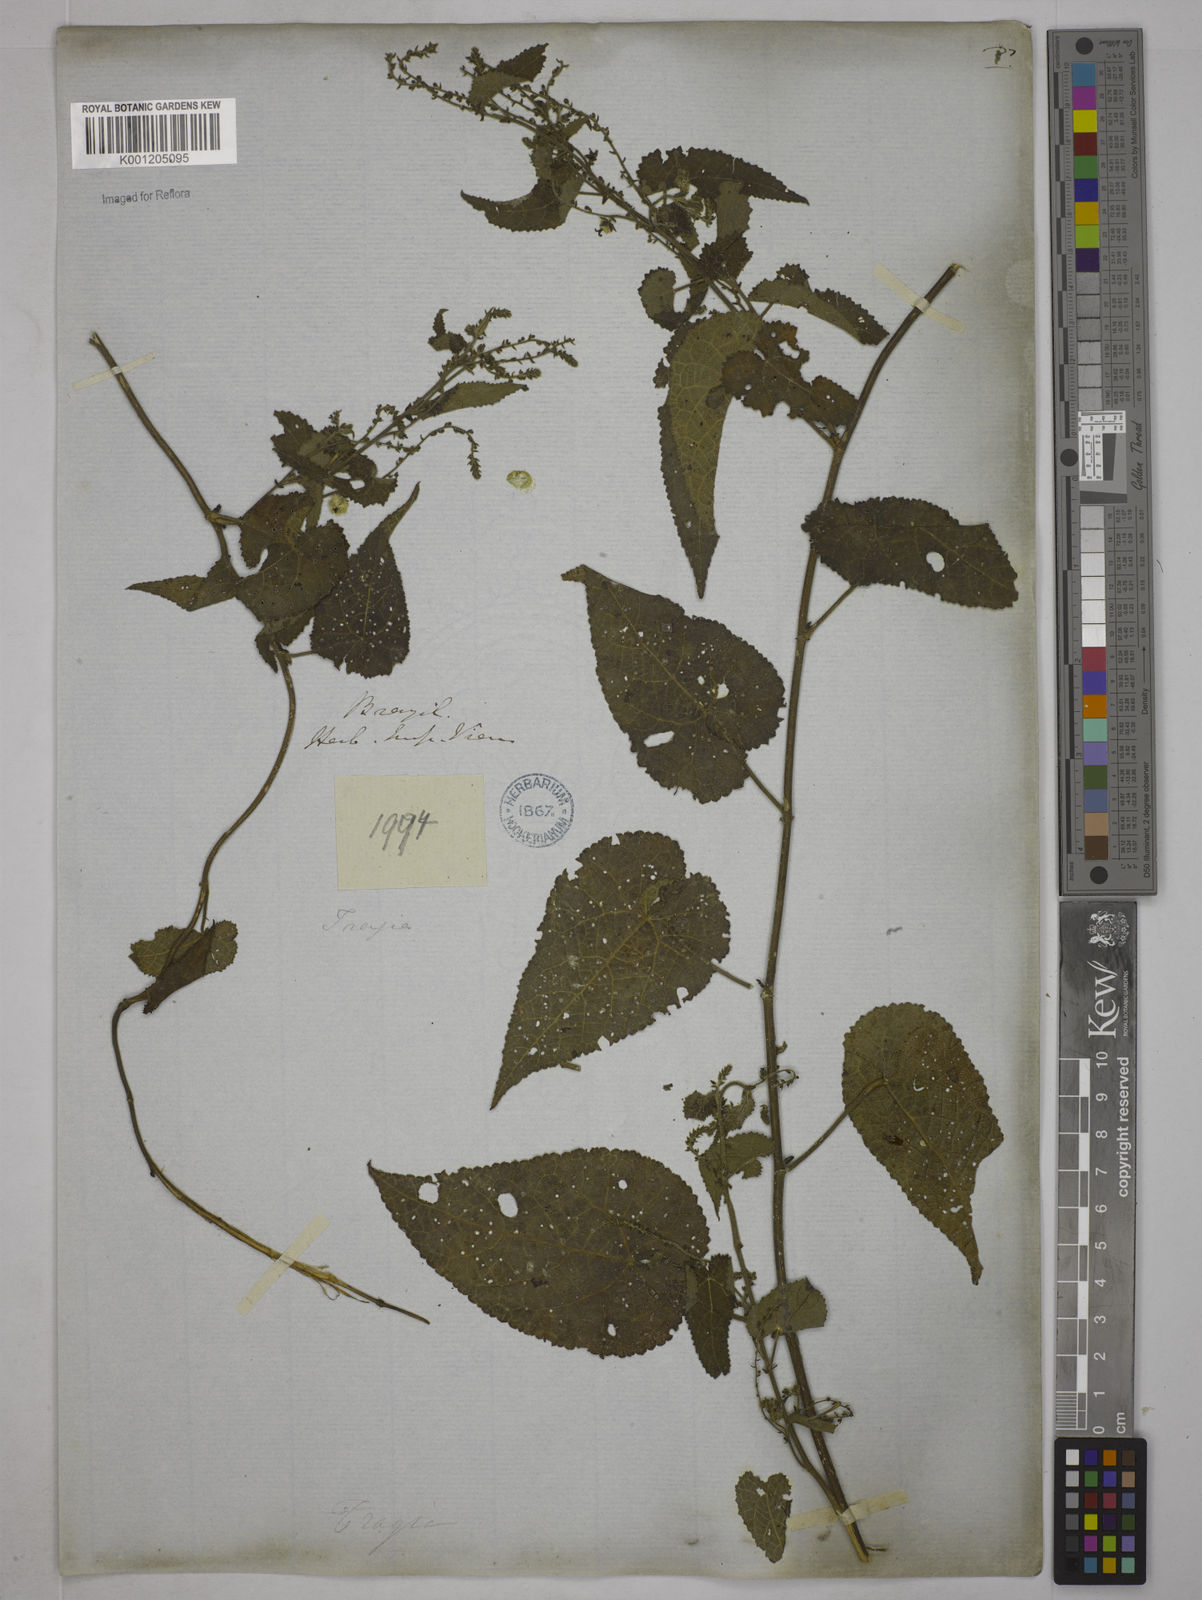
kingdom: Plantae
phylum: Tracheophyta
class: Magnoliopsida
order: Malpighiales
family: Euphorbiaceae
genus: Tragia
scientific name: Tragia
